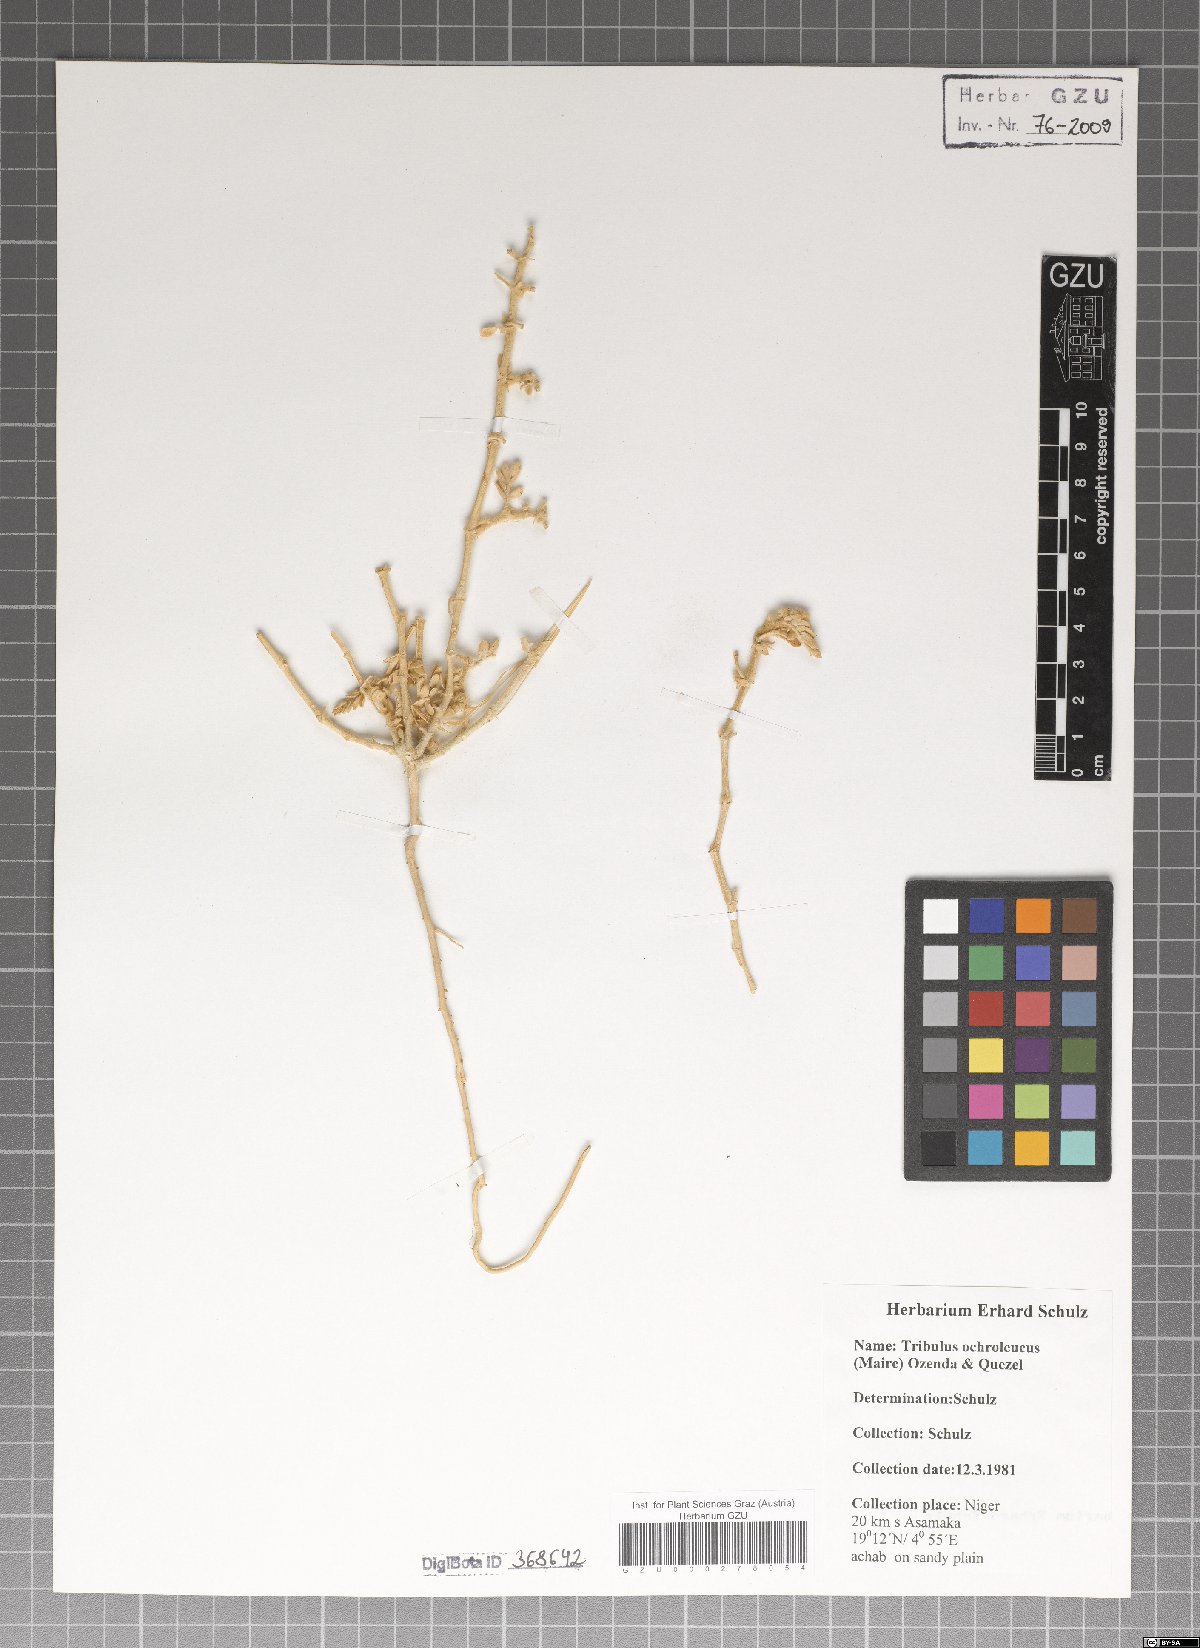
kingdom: Plantae
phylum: Tracheophyta
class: Magnoliopsida
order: Zygophyllales
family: Zygophyllaceae
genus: Tribulus
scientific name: Tribulus ochroleucus
